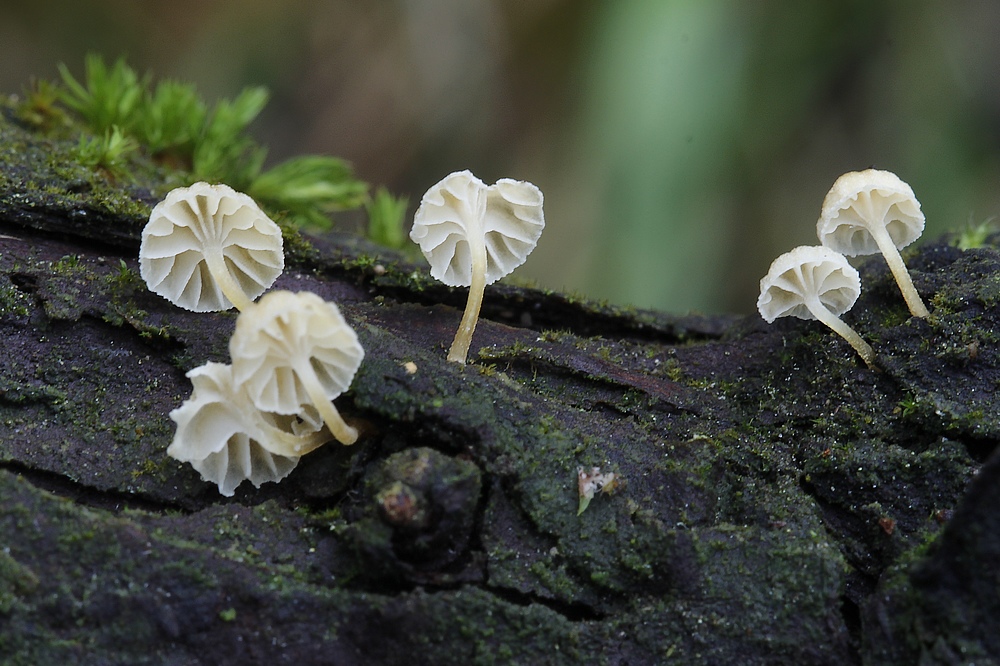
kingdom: Fungi
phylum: Basidiomycota
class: Agaricomycetes
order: Agaricales
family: Mycenaceae
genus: Mycena
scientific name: Mycena juniperina
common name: ene-Huesvamp
